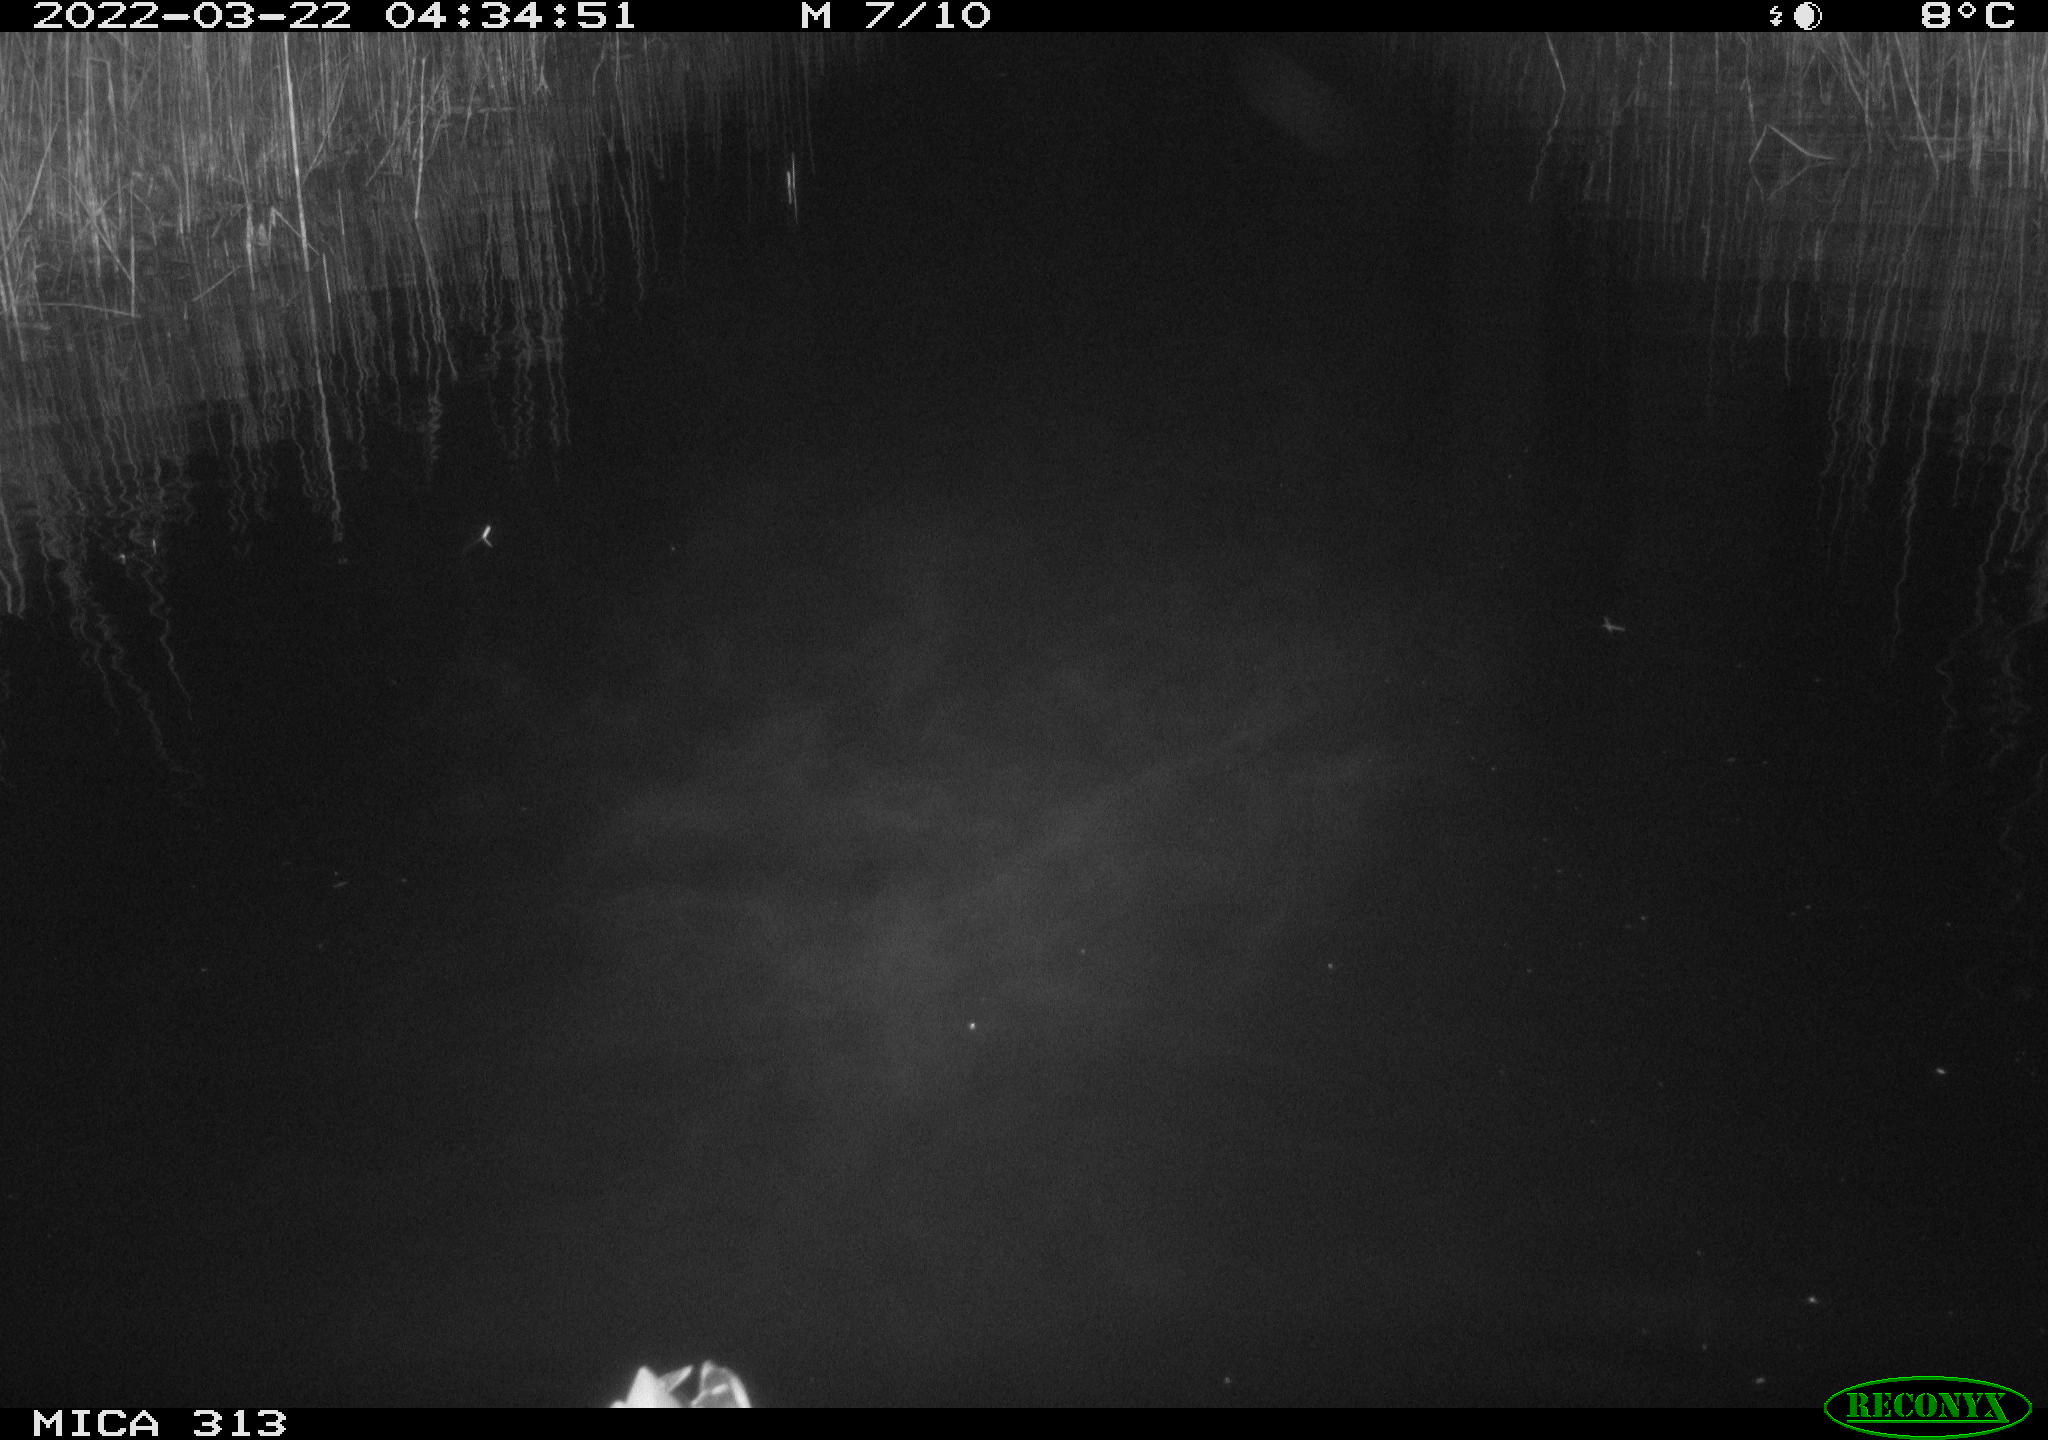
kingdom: Animalia
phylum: Chordata
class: Aves
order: Anseriformes
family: Anatidae
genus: Anas
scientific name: Anas platyrhynchos
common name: Mallard
